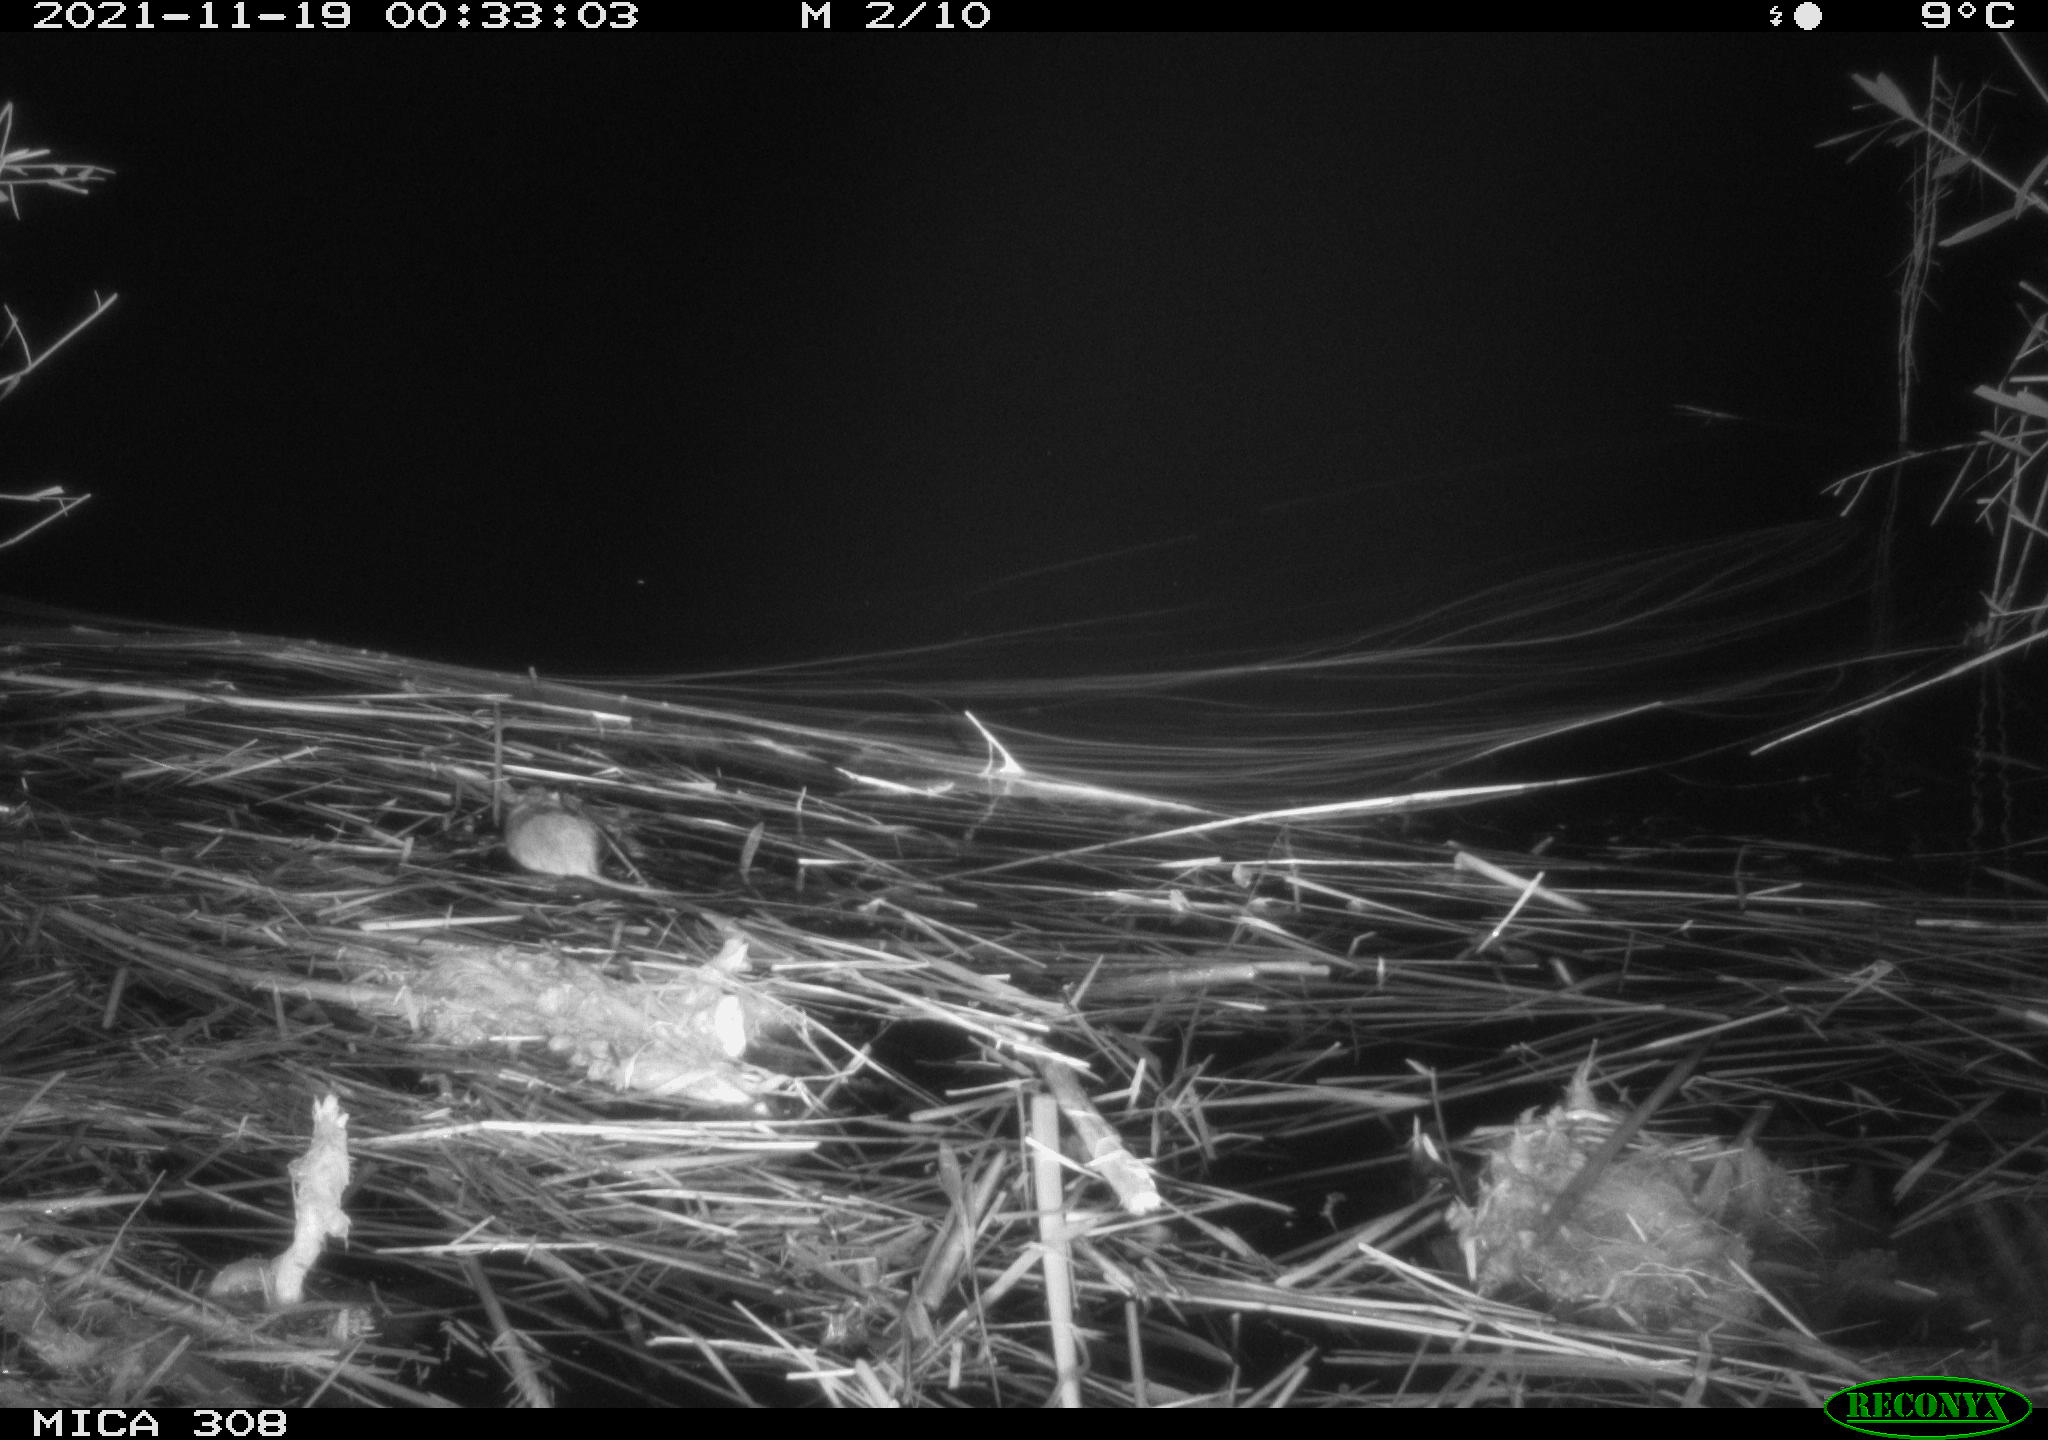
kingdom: Animalia
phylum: Chordata
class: Mammalia
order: Rodentia
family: Muridae
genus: Rattus
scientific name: Rattus norvegicus
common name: Brown rat
